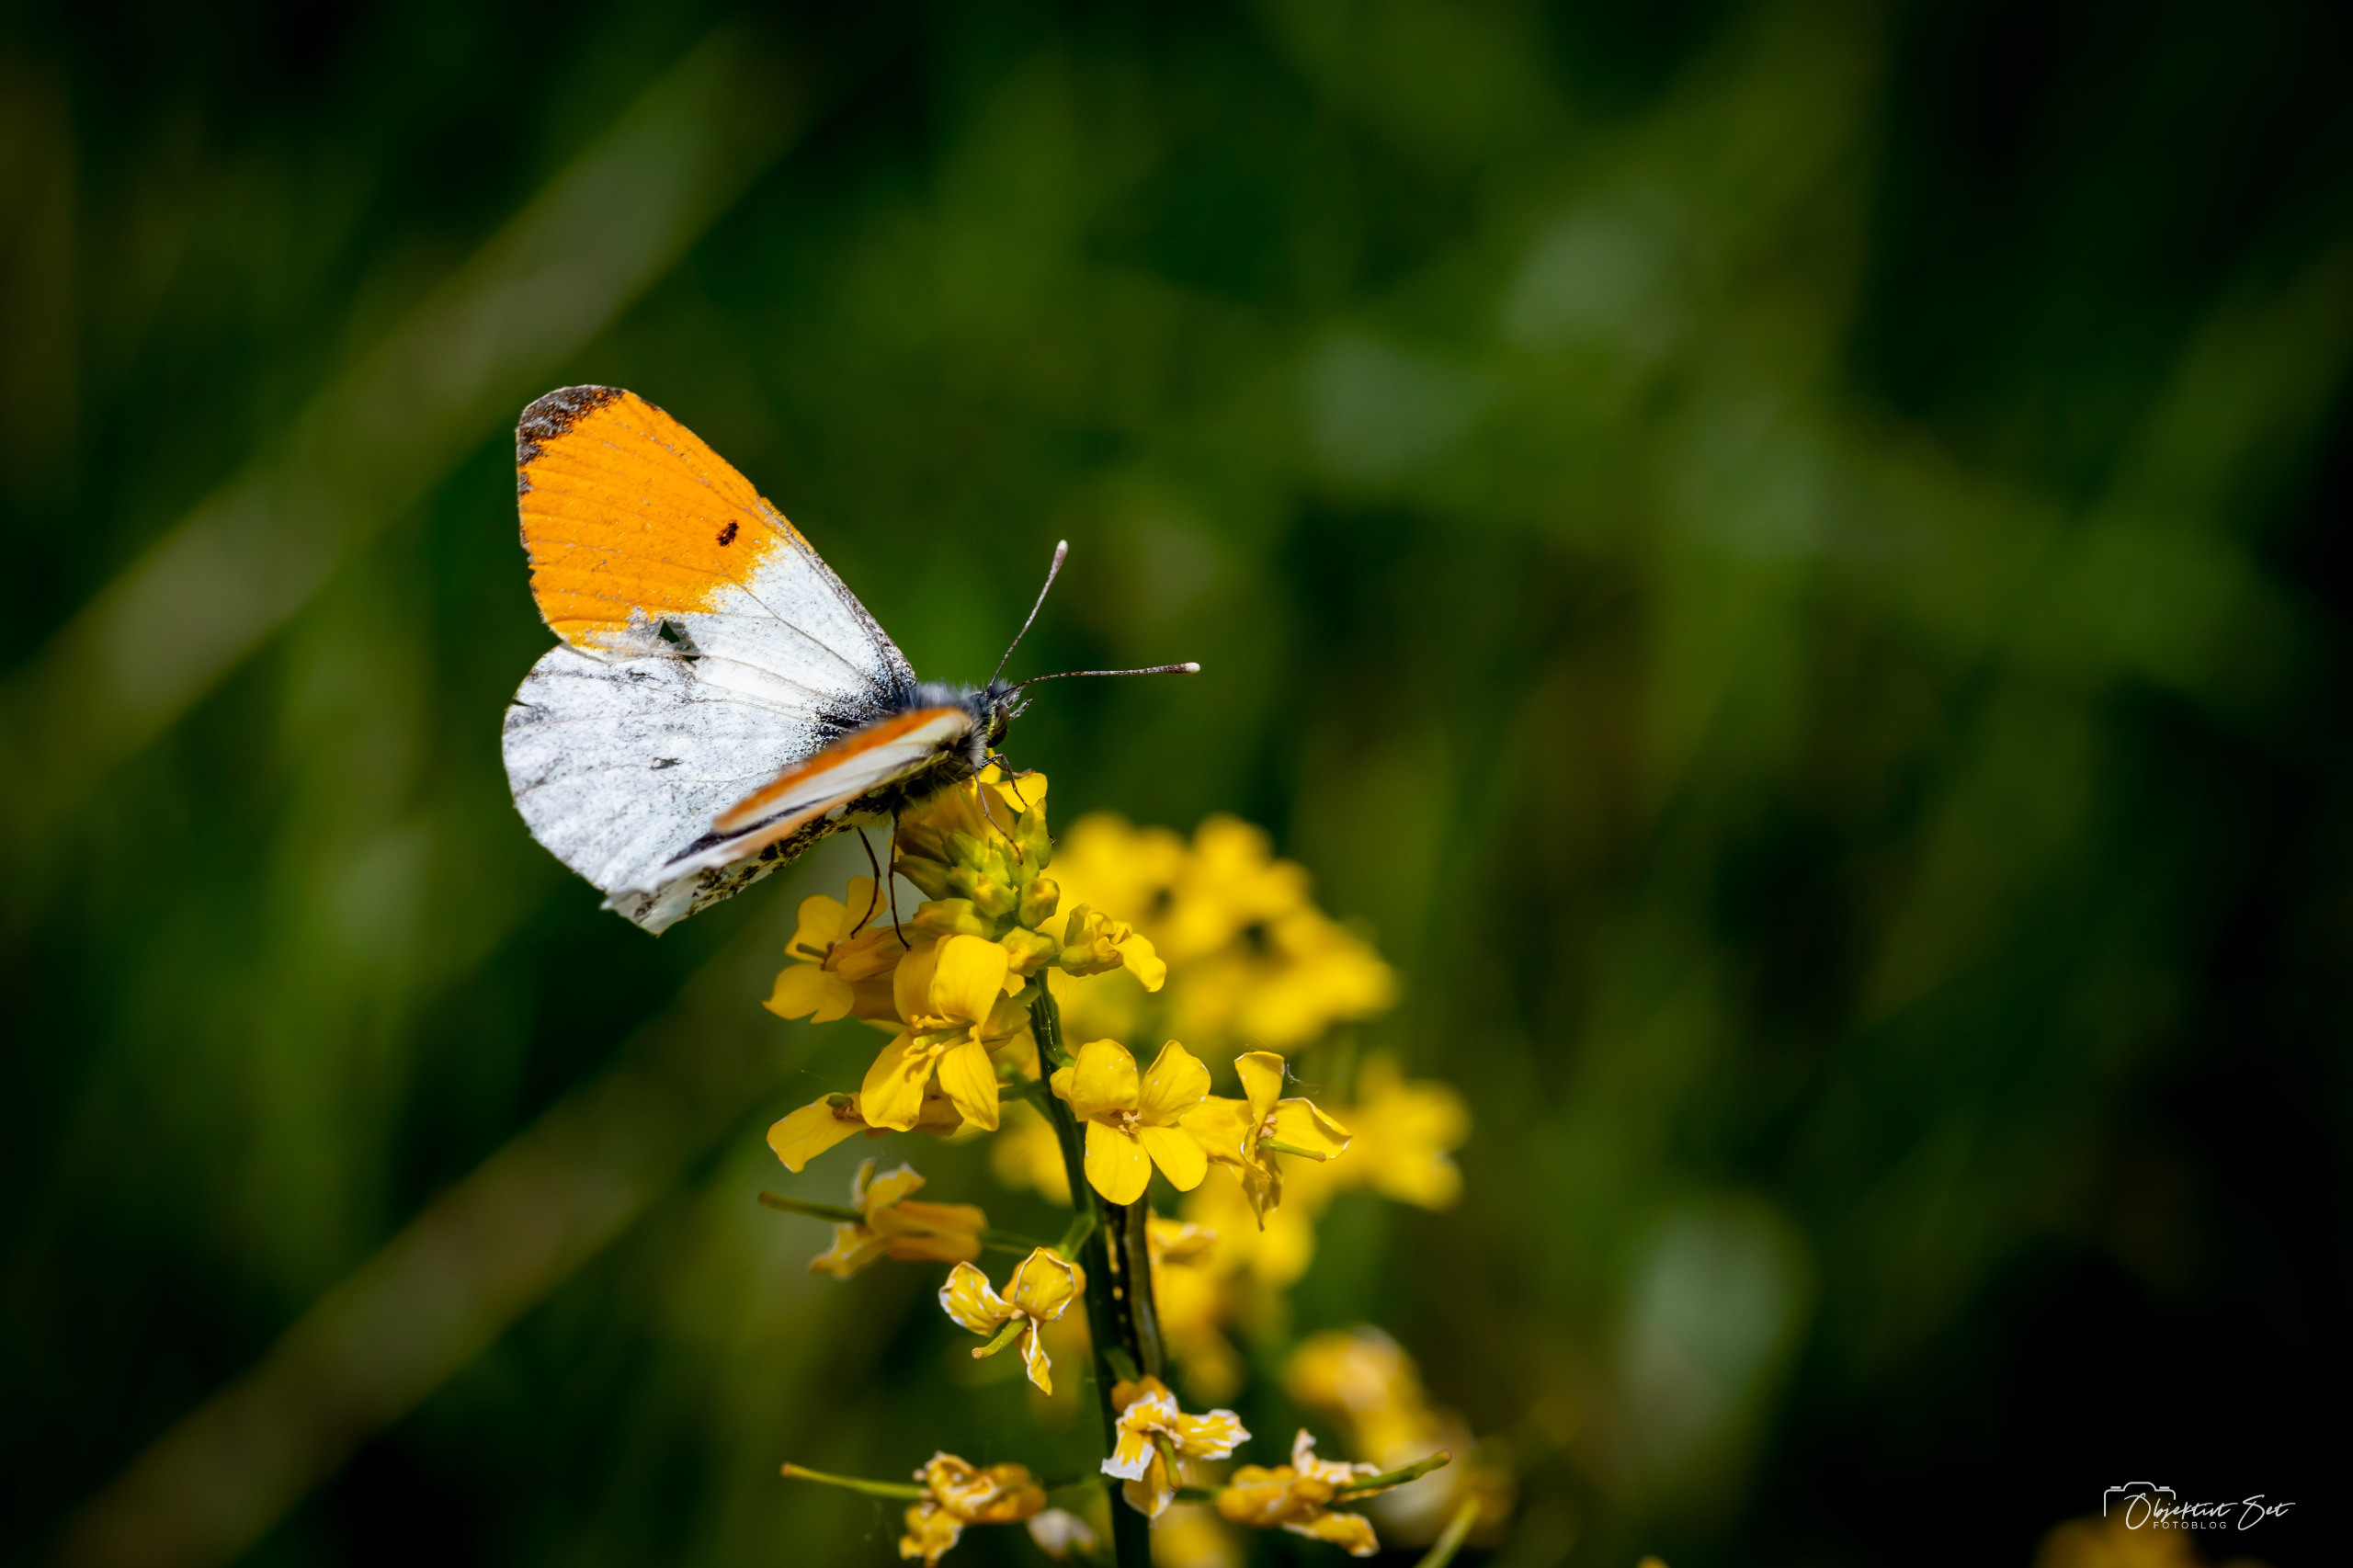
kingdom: Animalia
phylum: Arthropoda
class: Insecta
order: Lepidoptera
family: Pieridae
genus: Anthocharis
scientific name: Anthocharis cardamines
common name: Aurora
